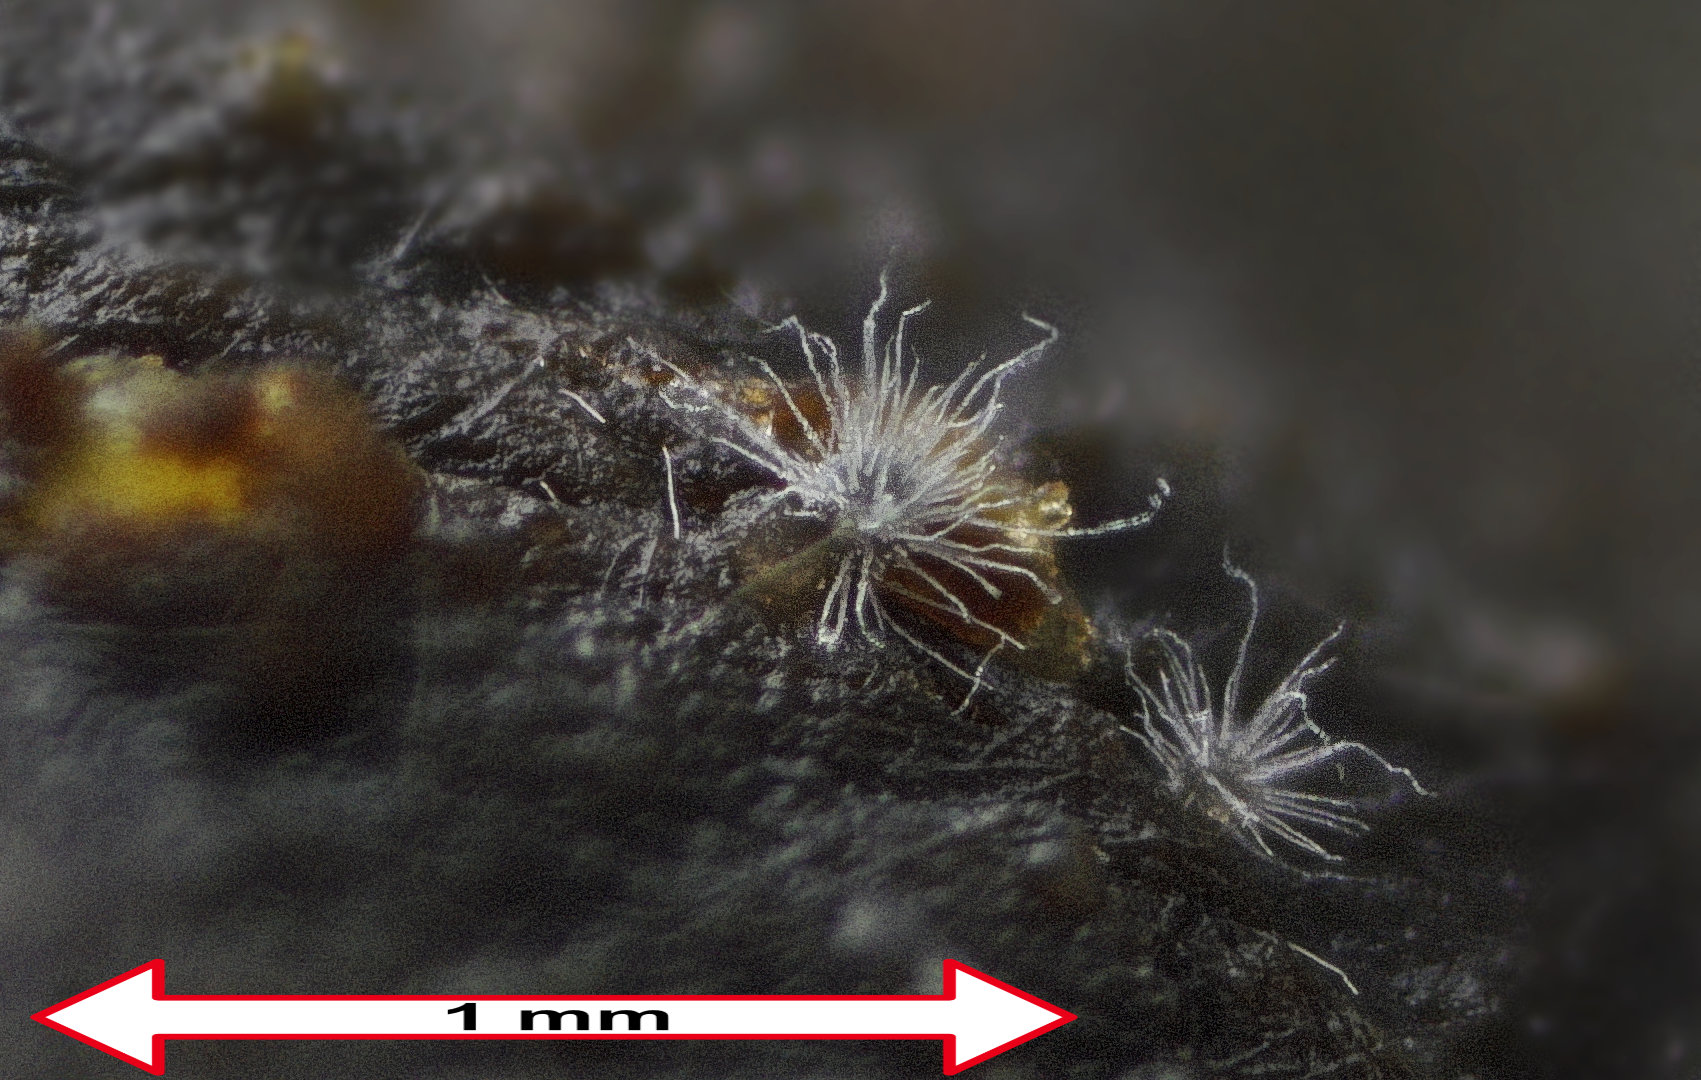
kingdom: Fungi
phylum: Ascomycota
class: Sordariomycetes
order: Sordariales
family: Chaetomiaceae
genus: Chaetomium
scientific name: Chaetomium
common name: søjlekerne
